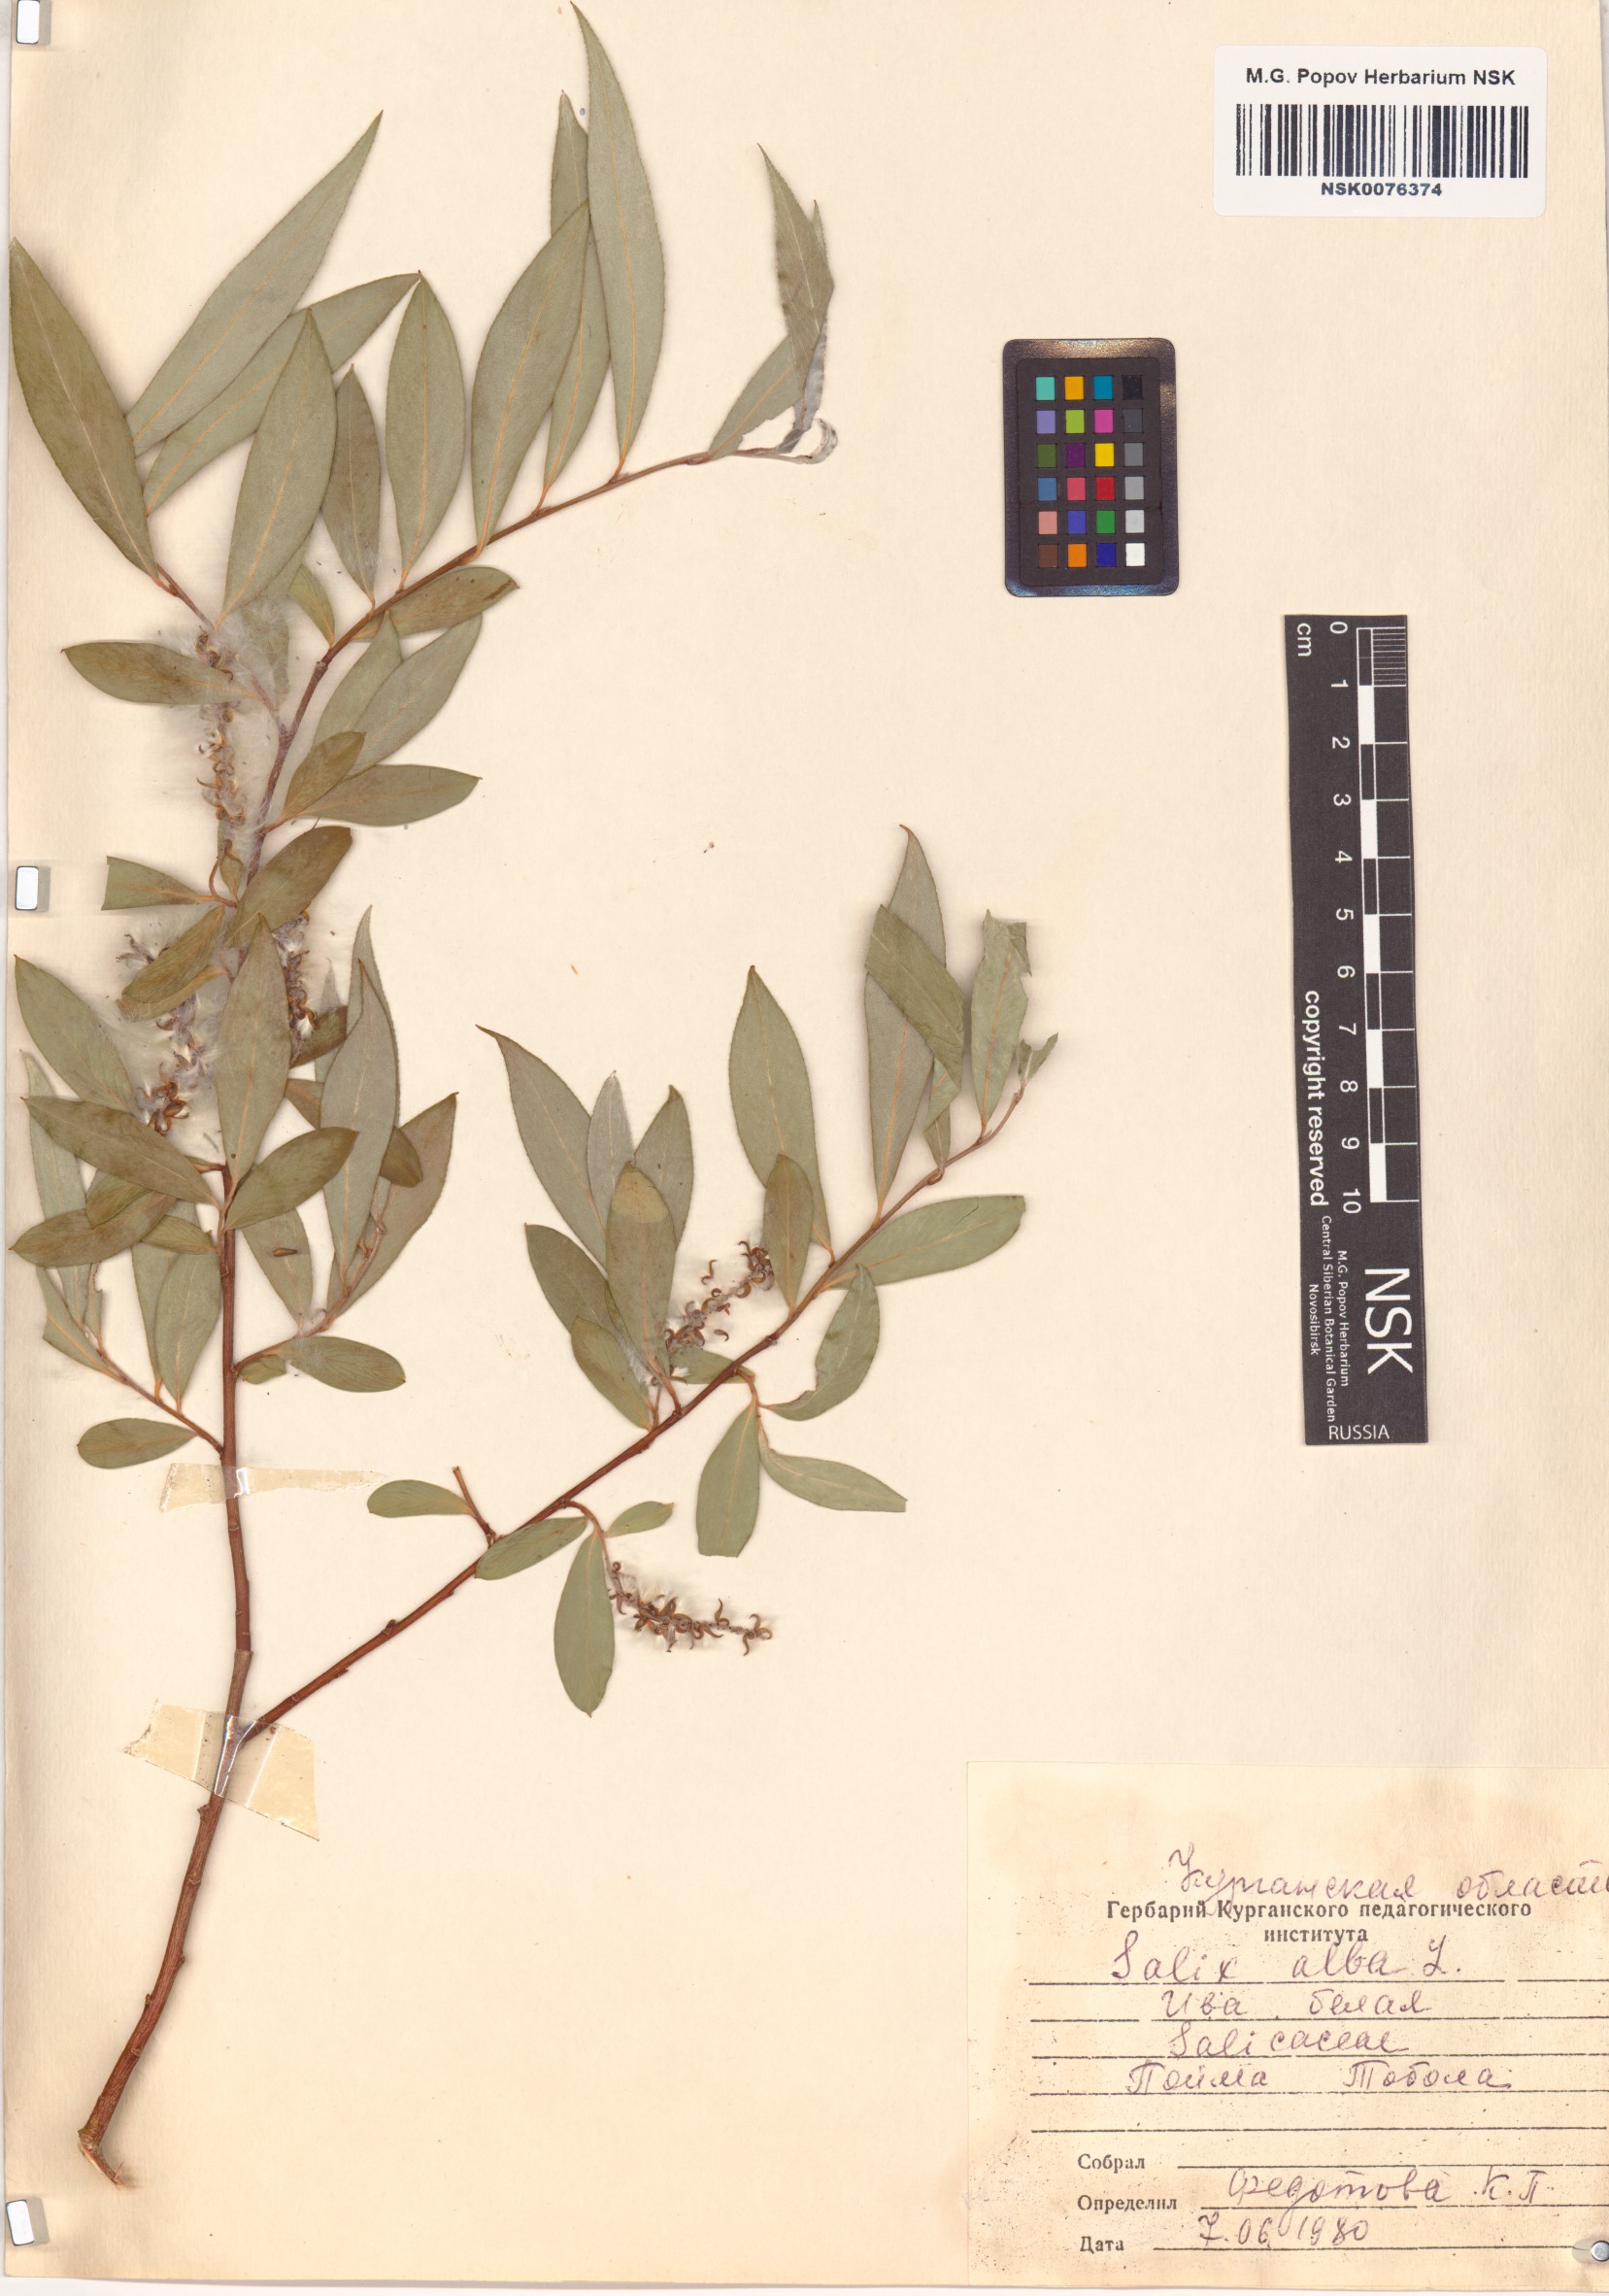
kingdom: Plantae
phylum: Tracheophyta
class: Magnoliopsida
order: Malpighiales
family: Salicaceae
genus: Salix
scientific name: Salix alba
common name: White willow
